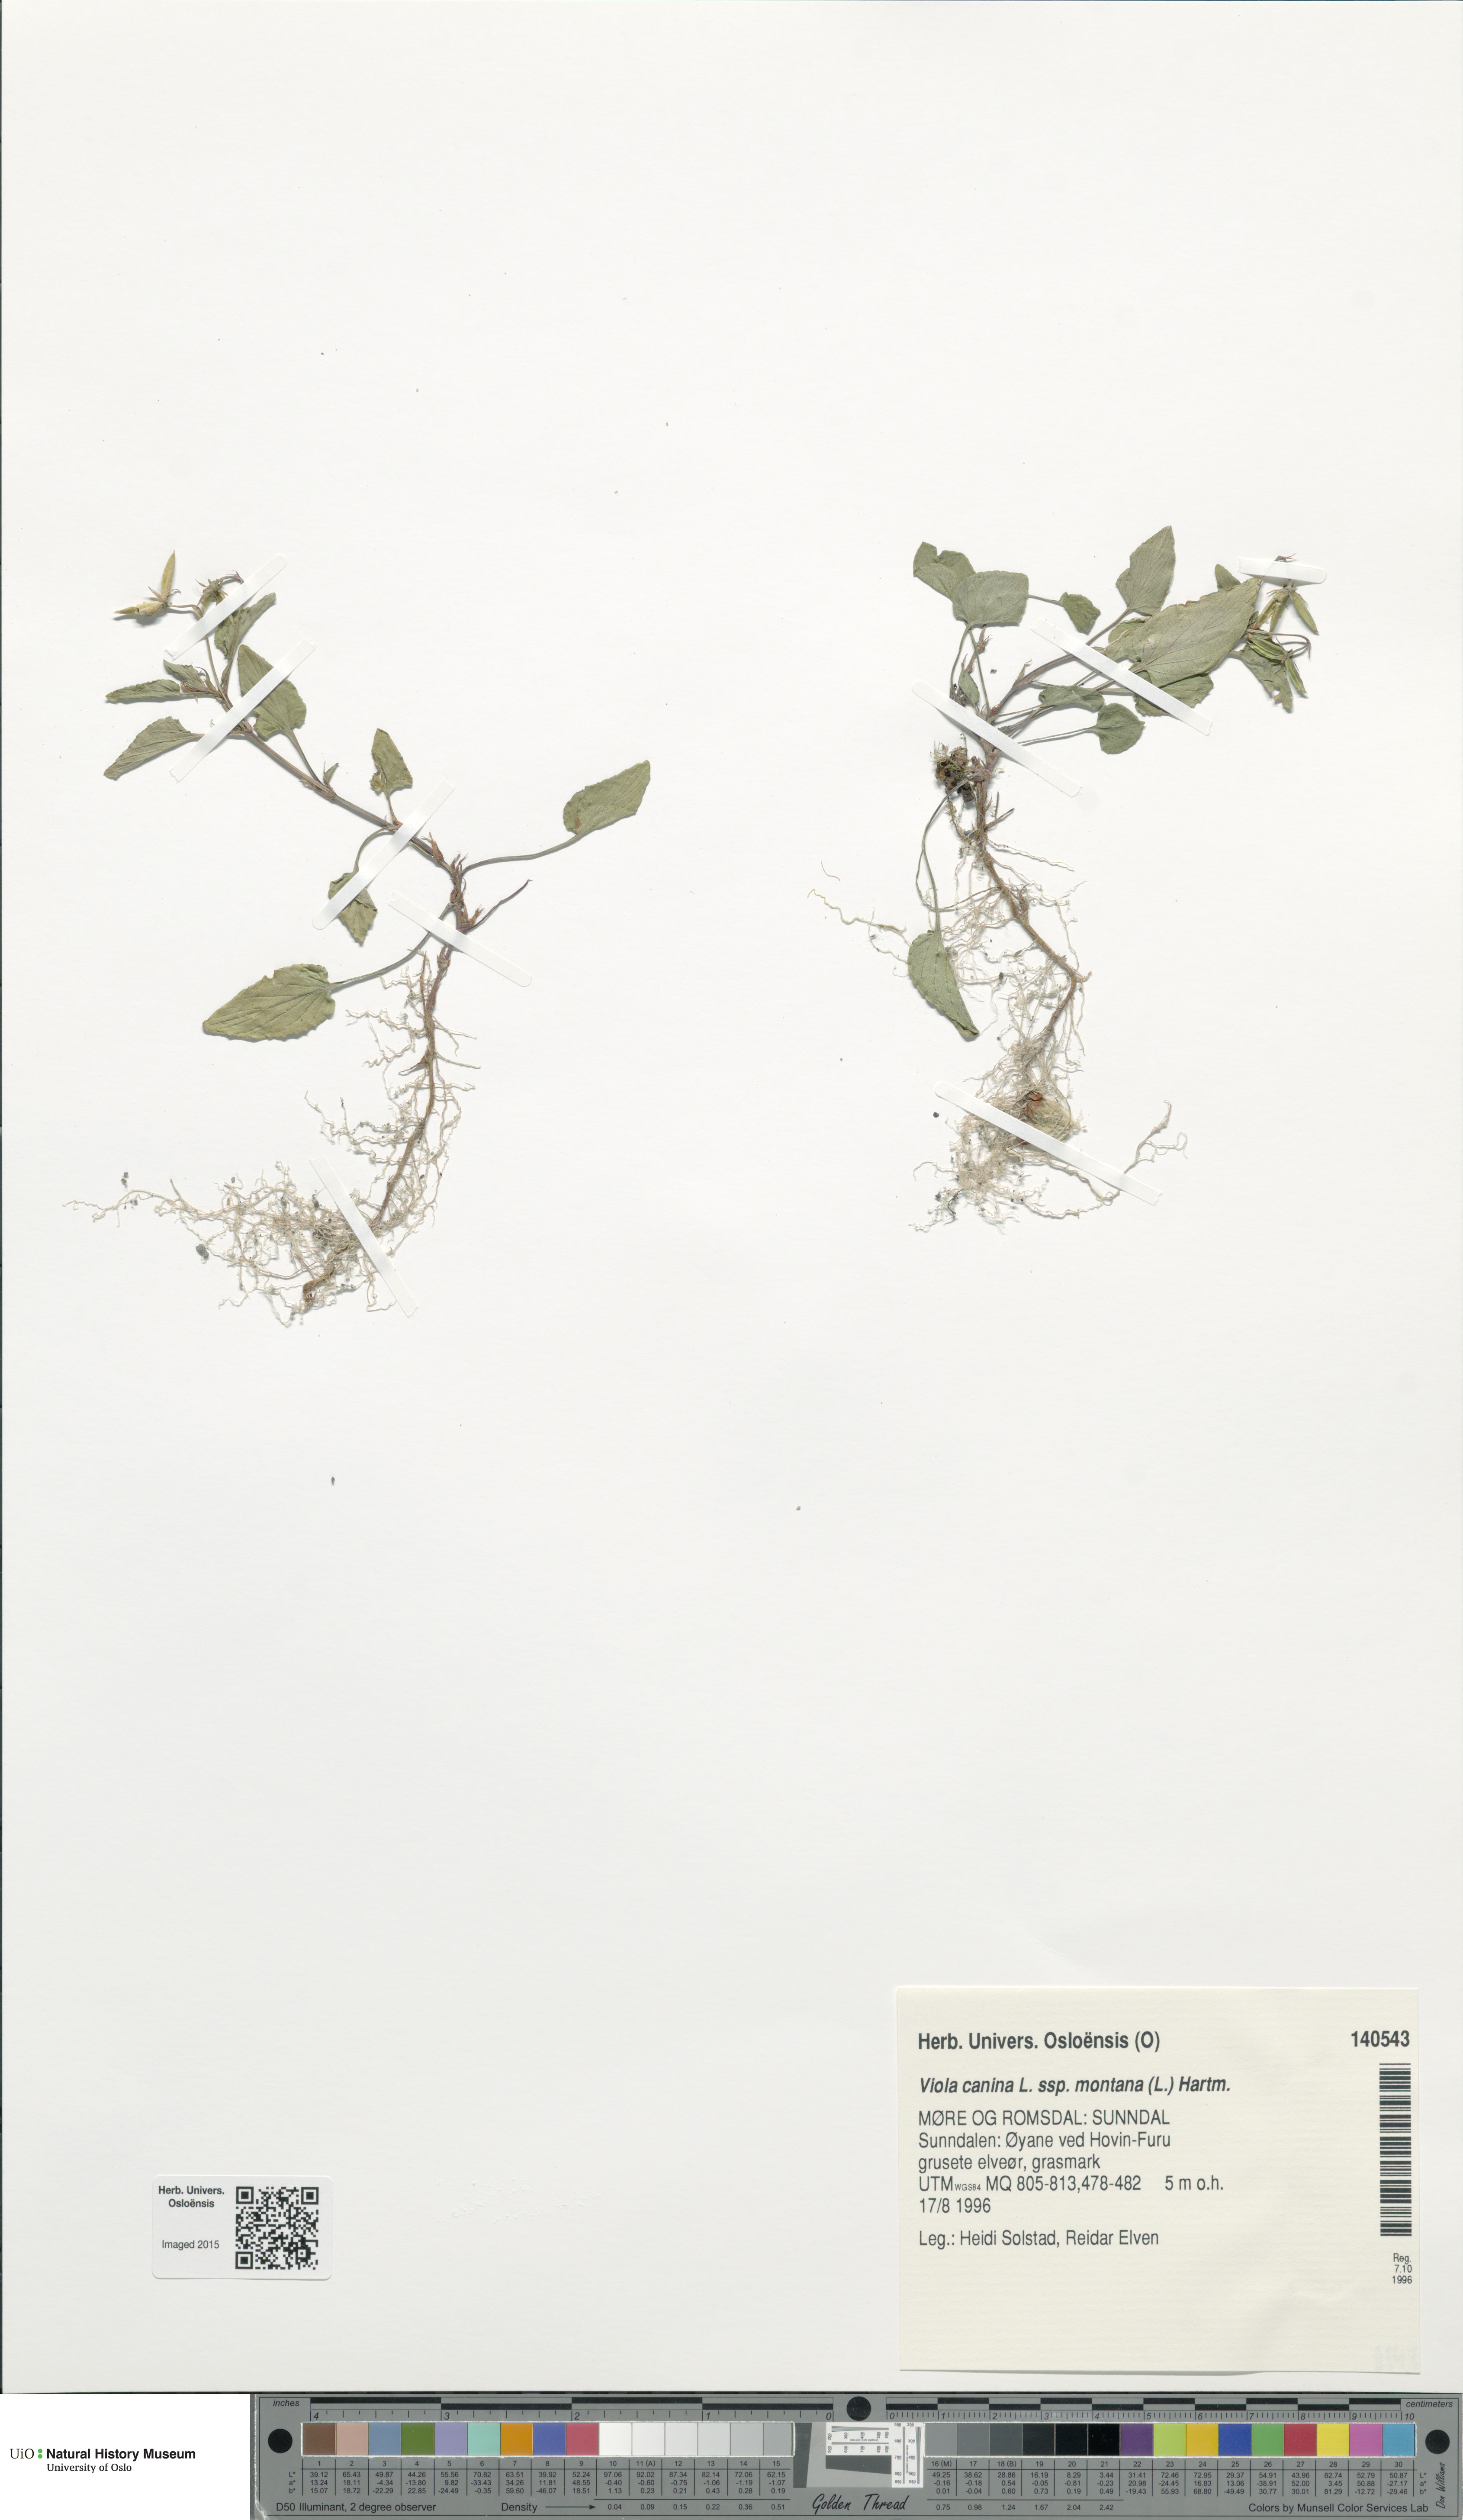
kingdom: Plantae
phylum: Tracheophyta
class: Magnoliopsida
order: Malpighiales
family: Violaceae
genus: Viola
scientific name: Viola ruppii
